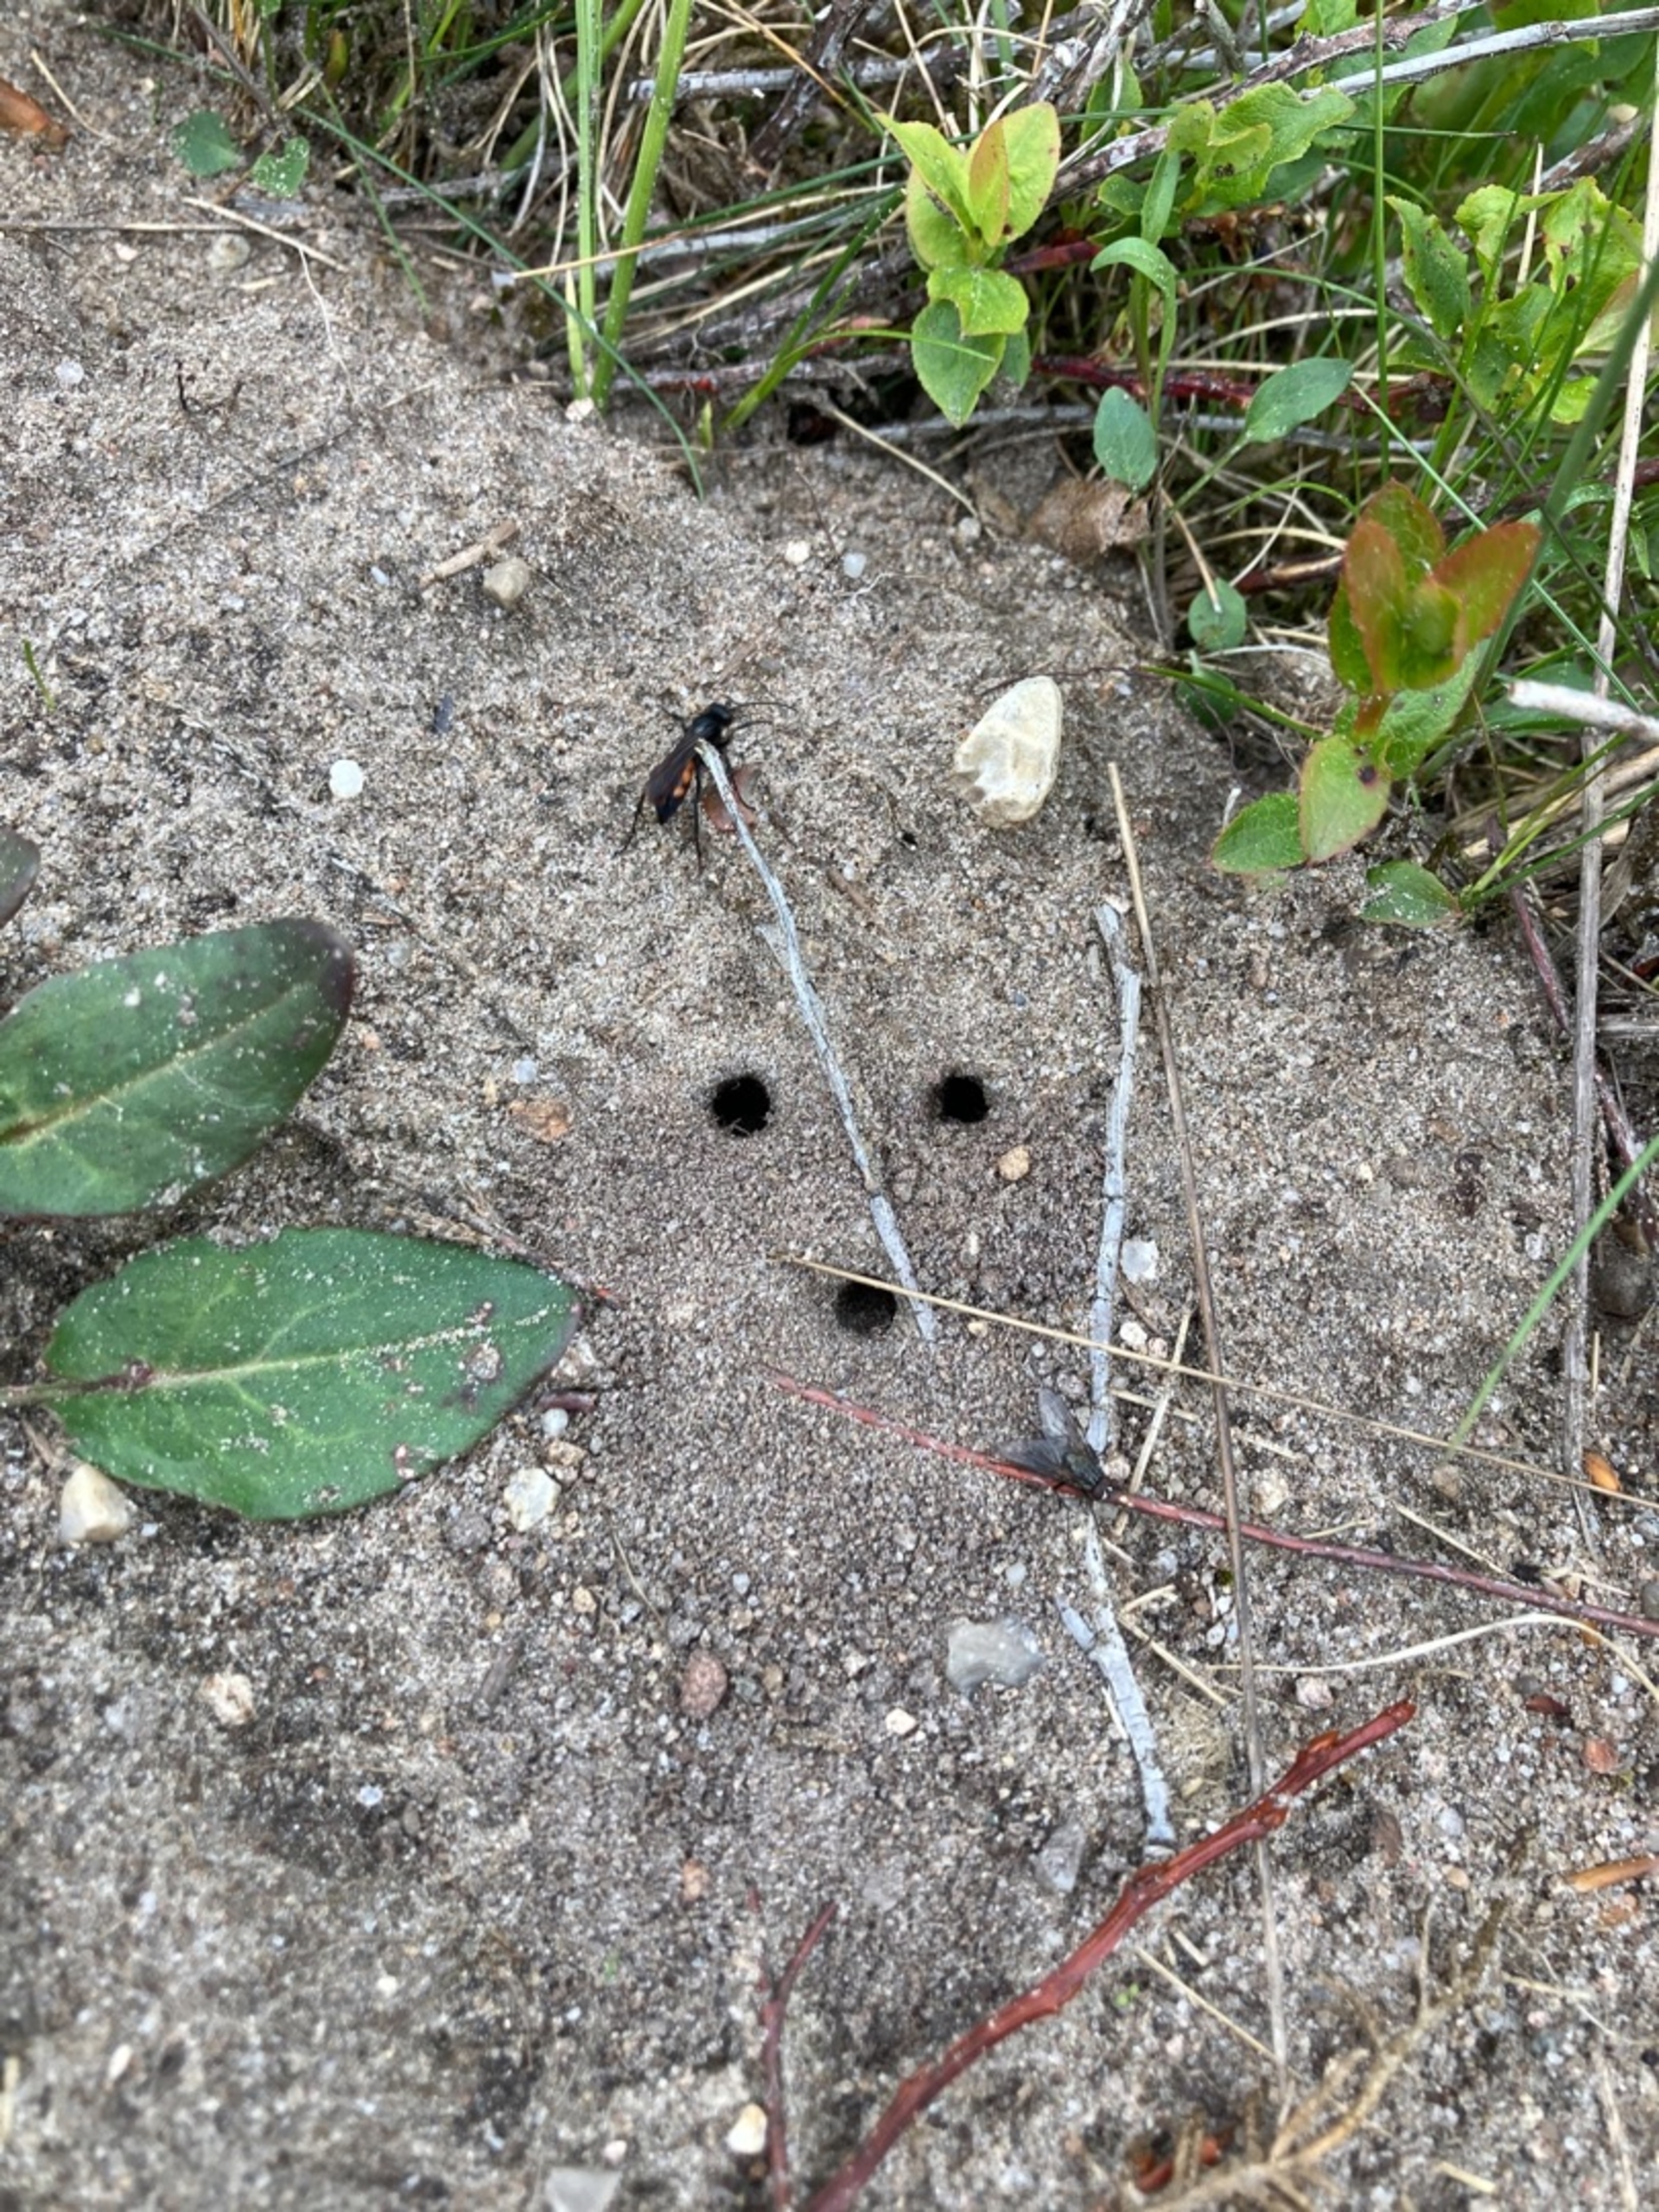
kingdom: Animalia
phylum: Arthropoda
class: Insecta
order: Hymenoptera
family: Pompilidae
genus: Anoplius
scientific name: Anoplius viaticus
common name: Almindelig vejhveps
